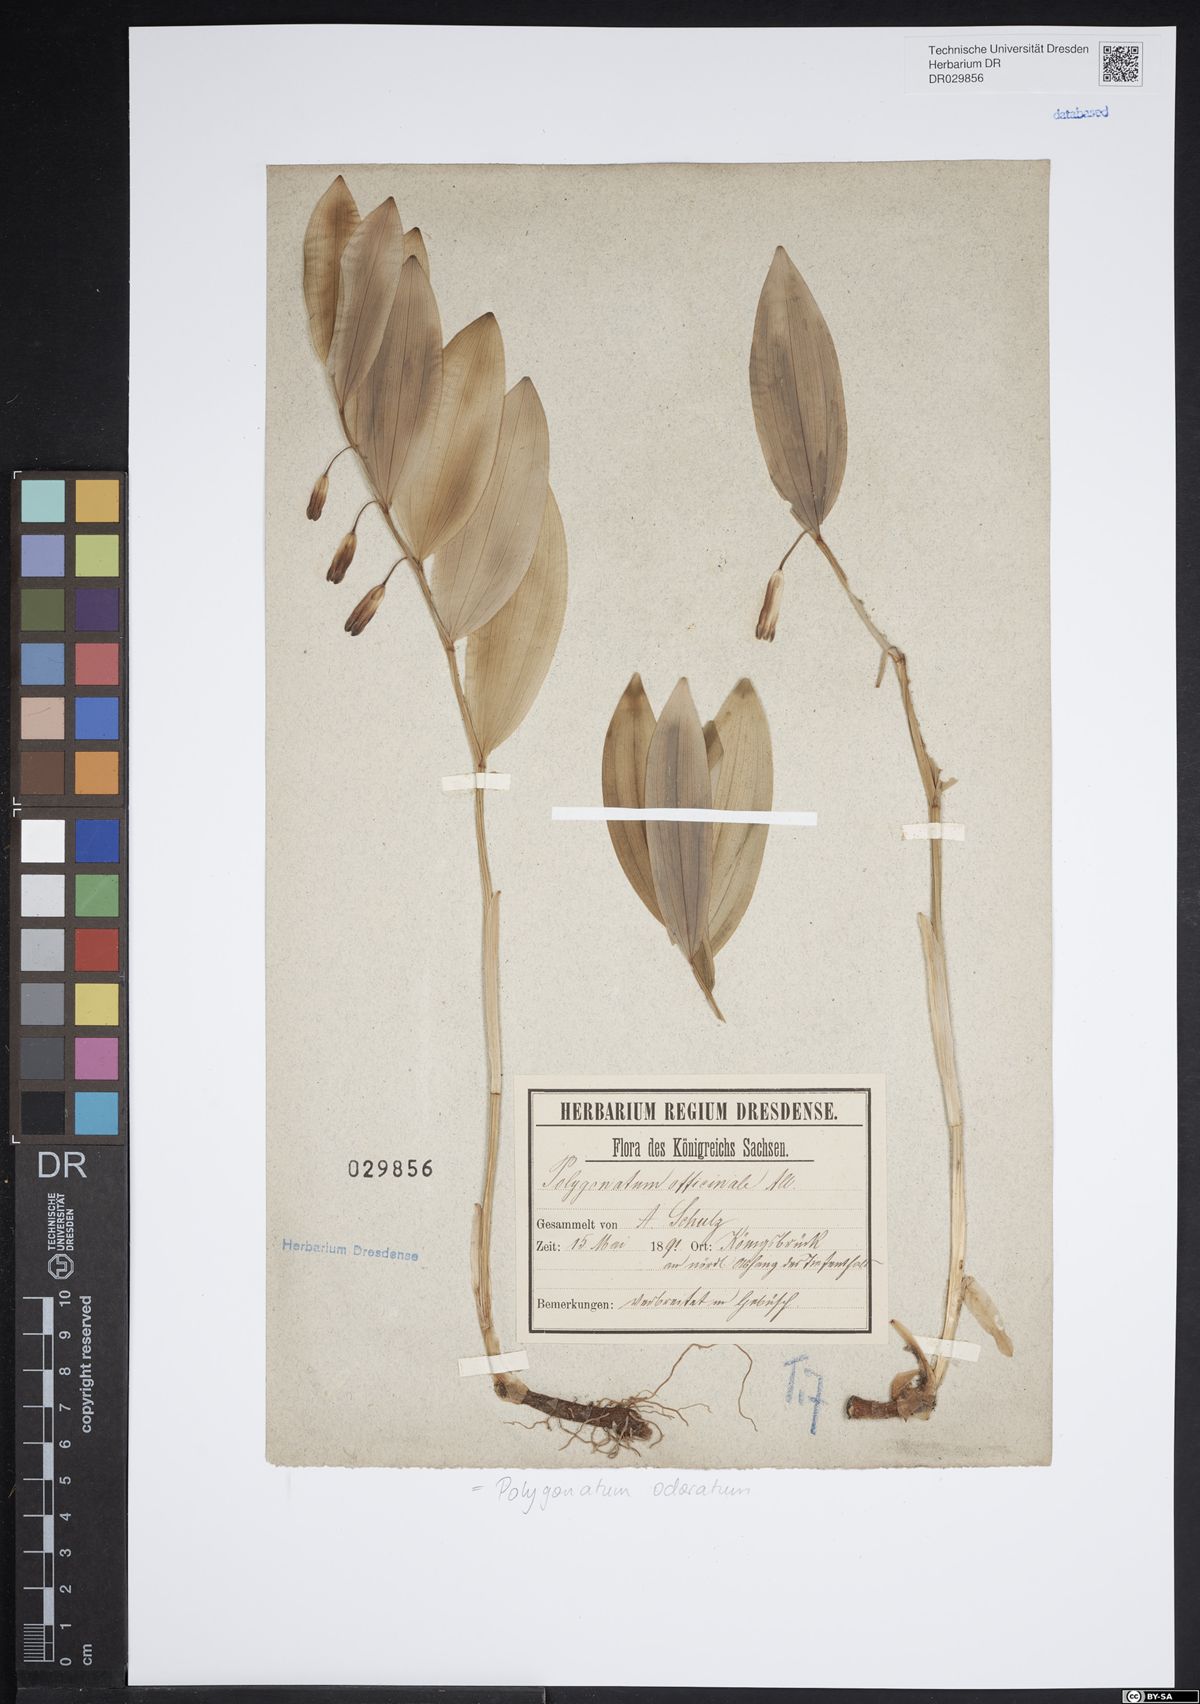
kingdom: Plantae
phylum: Tracheophyta
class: Liliopsida
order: Asparagales
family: Asparagaceae
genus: Polygonatum
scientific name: Polygonatum odoratum
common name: Angular solomon's-seal
